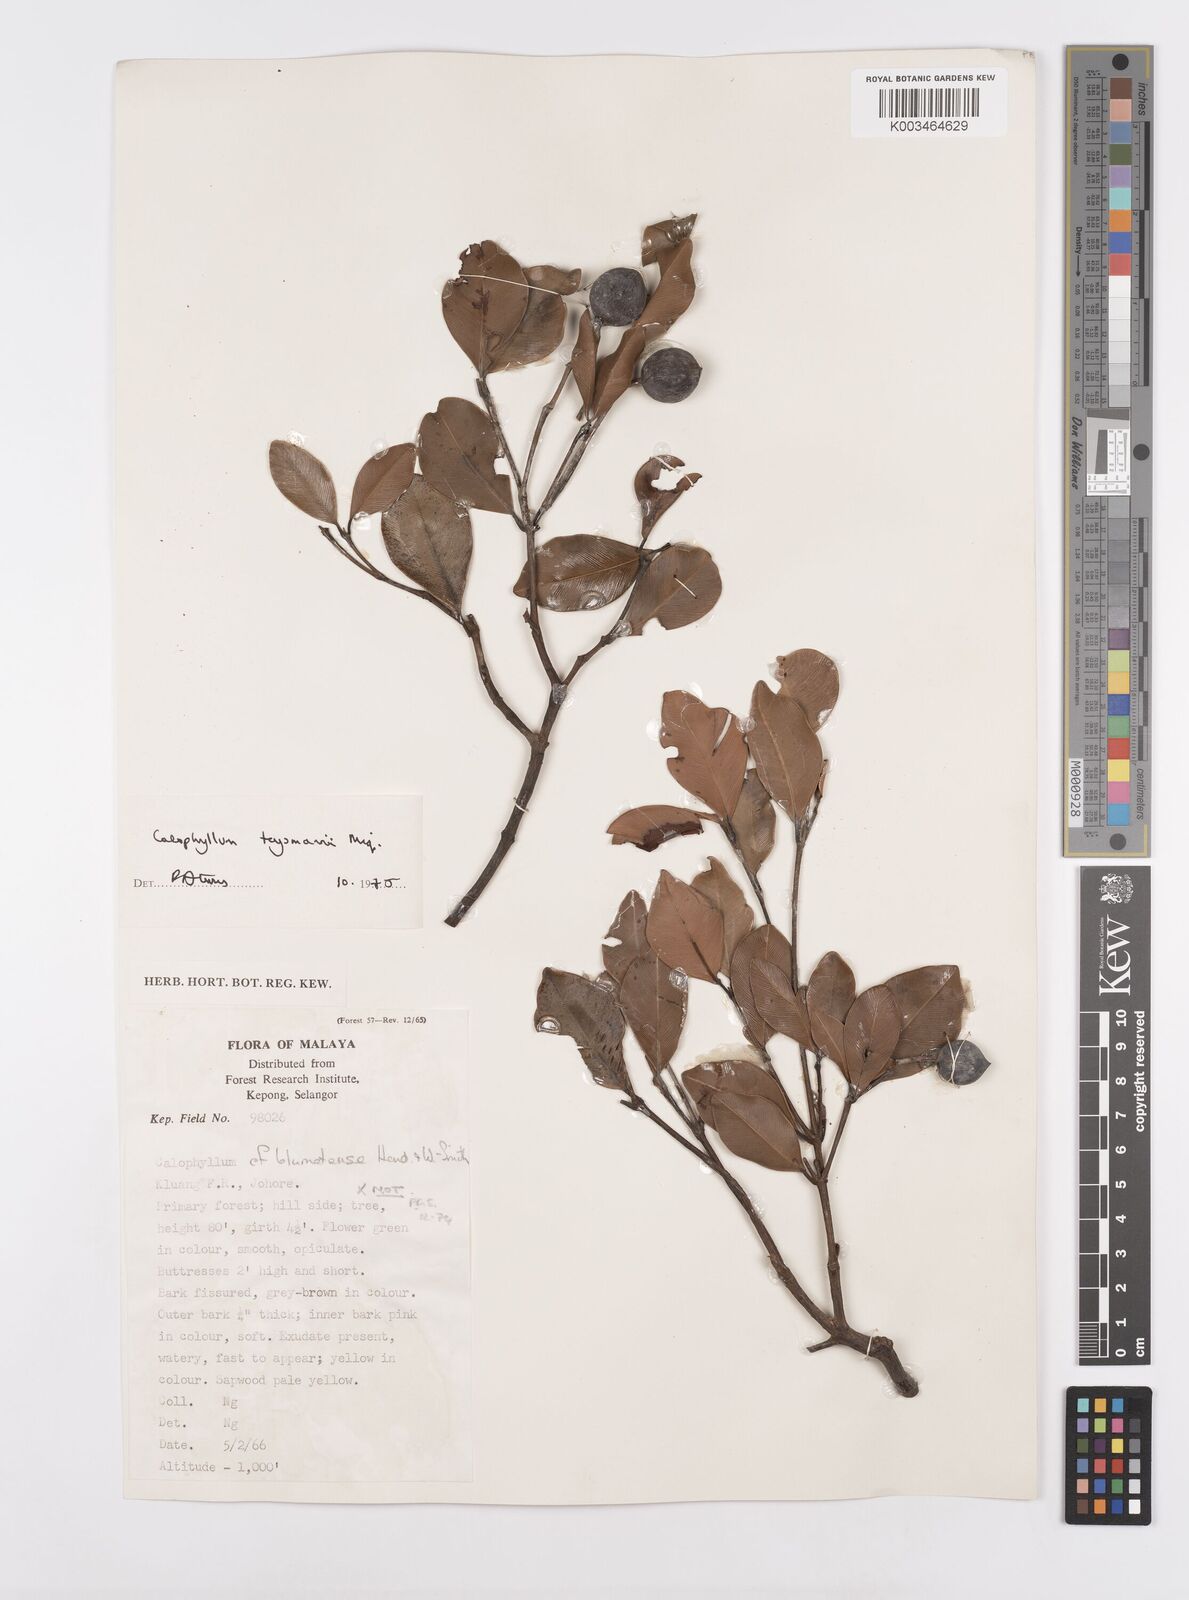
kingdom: Plantae
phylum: Tracheophyta
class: Magnoliopsida
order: Malpighiales
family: Calophyllaceae
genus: Calophyllum
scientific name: Calophyllum teysmannii
